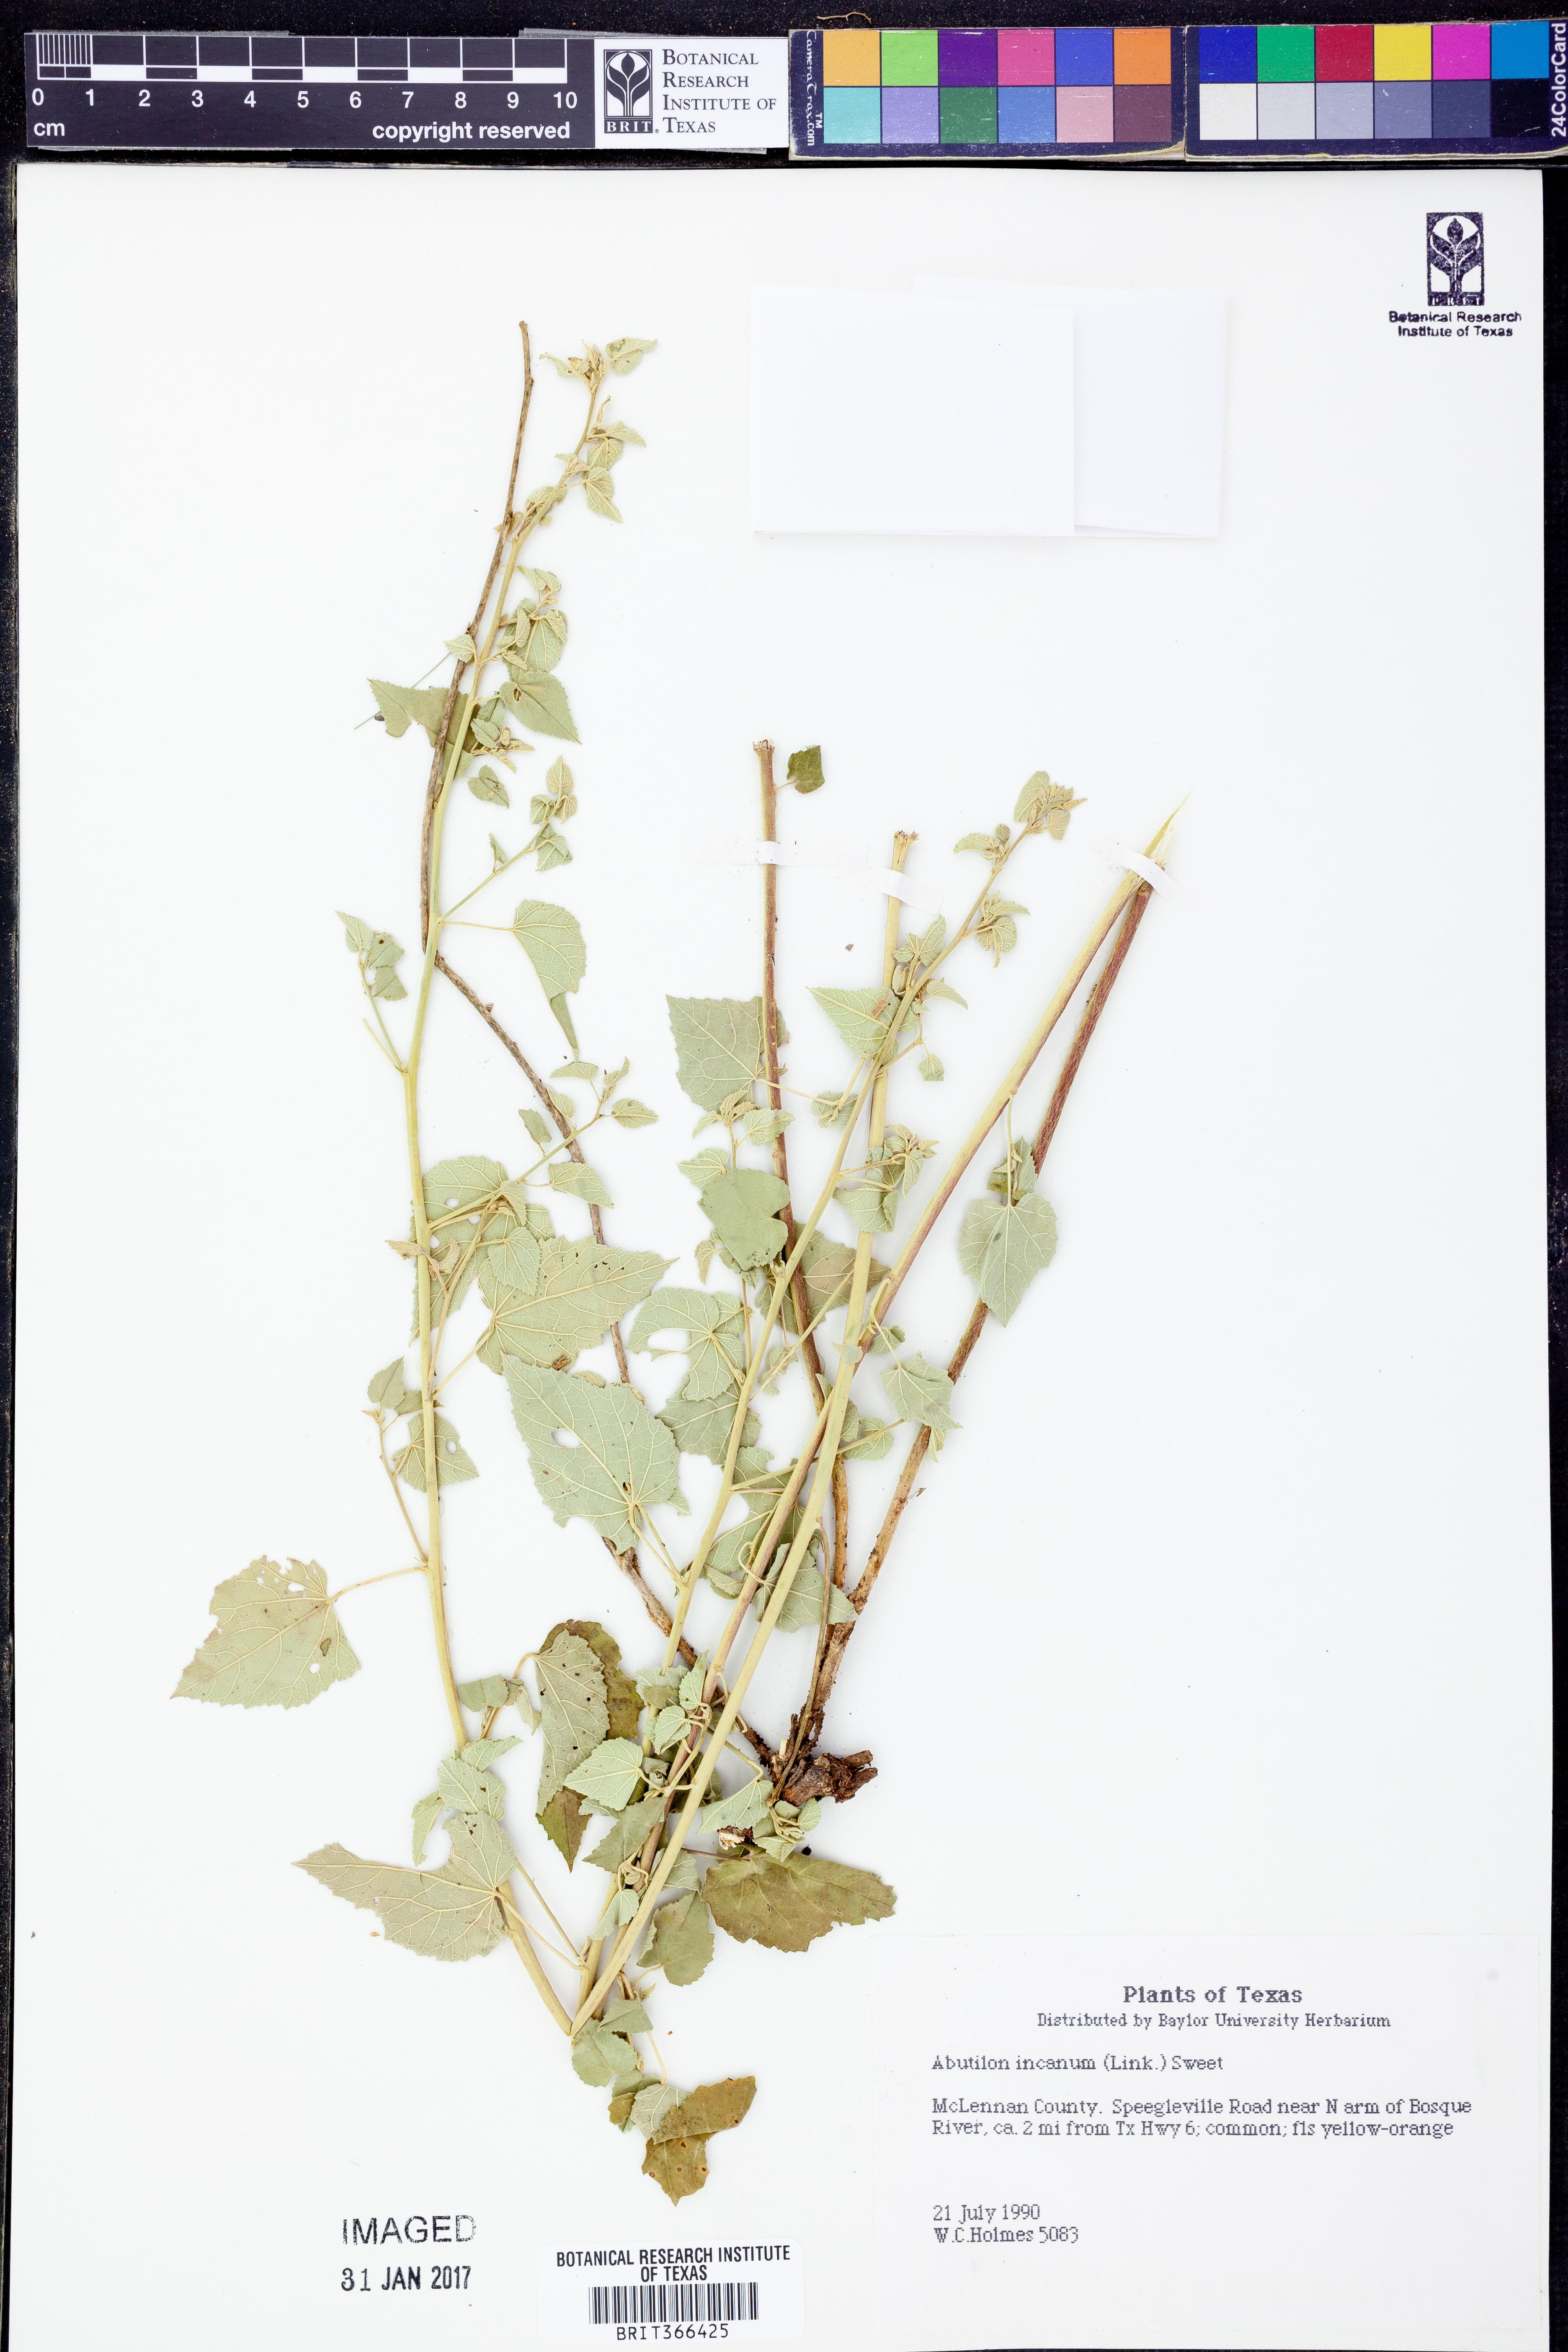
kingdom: Plantae
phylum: Tracheophyta
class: Magnoliopsida
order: Malvales
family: Malvaceae
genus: Abutilon
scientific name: Abutilon incanum
